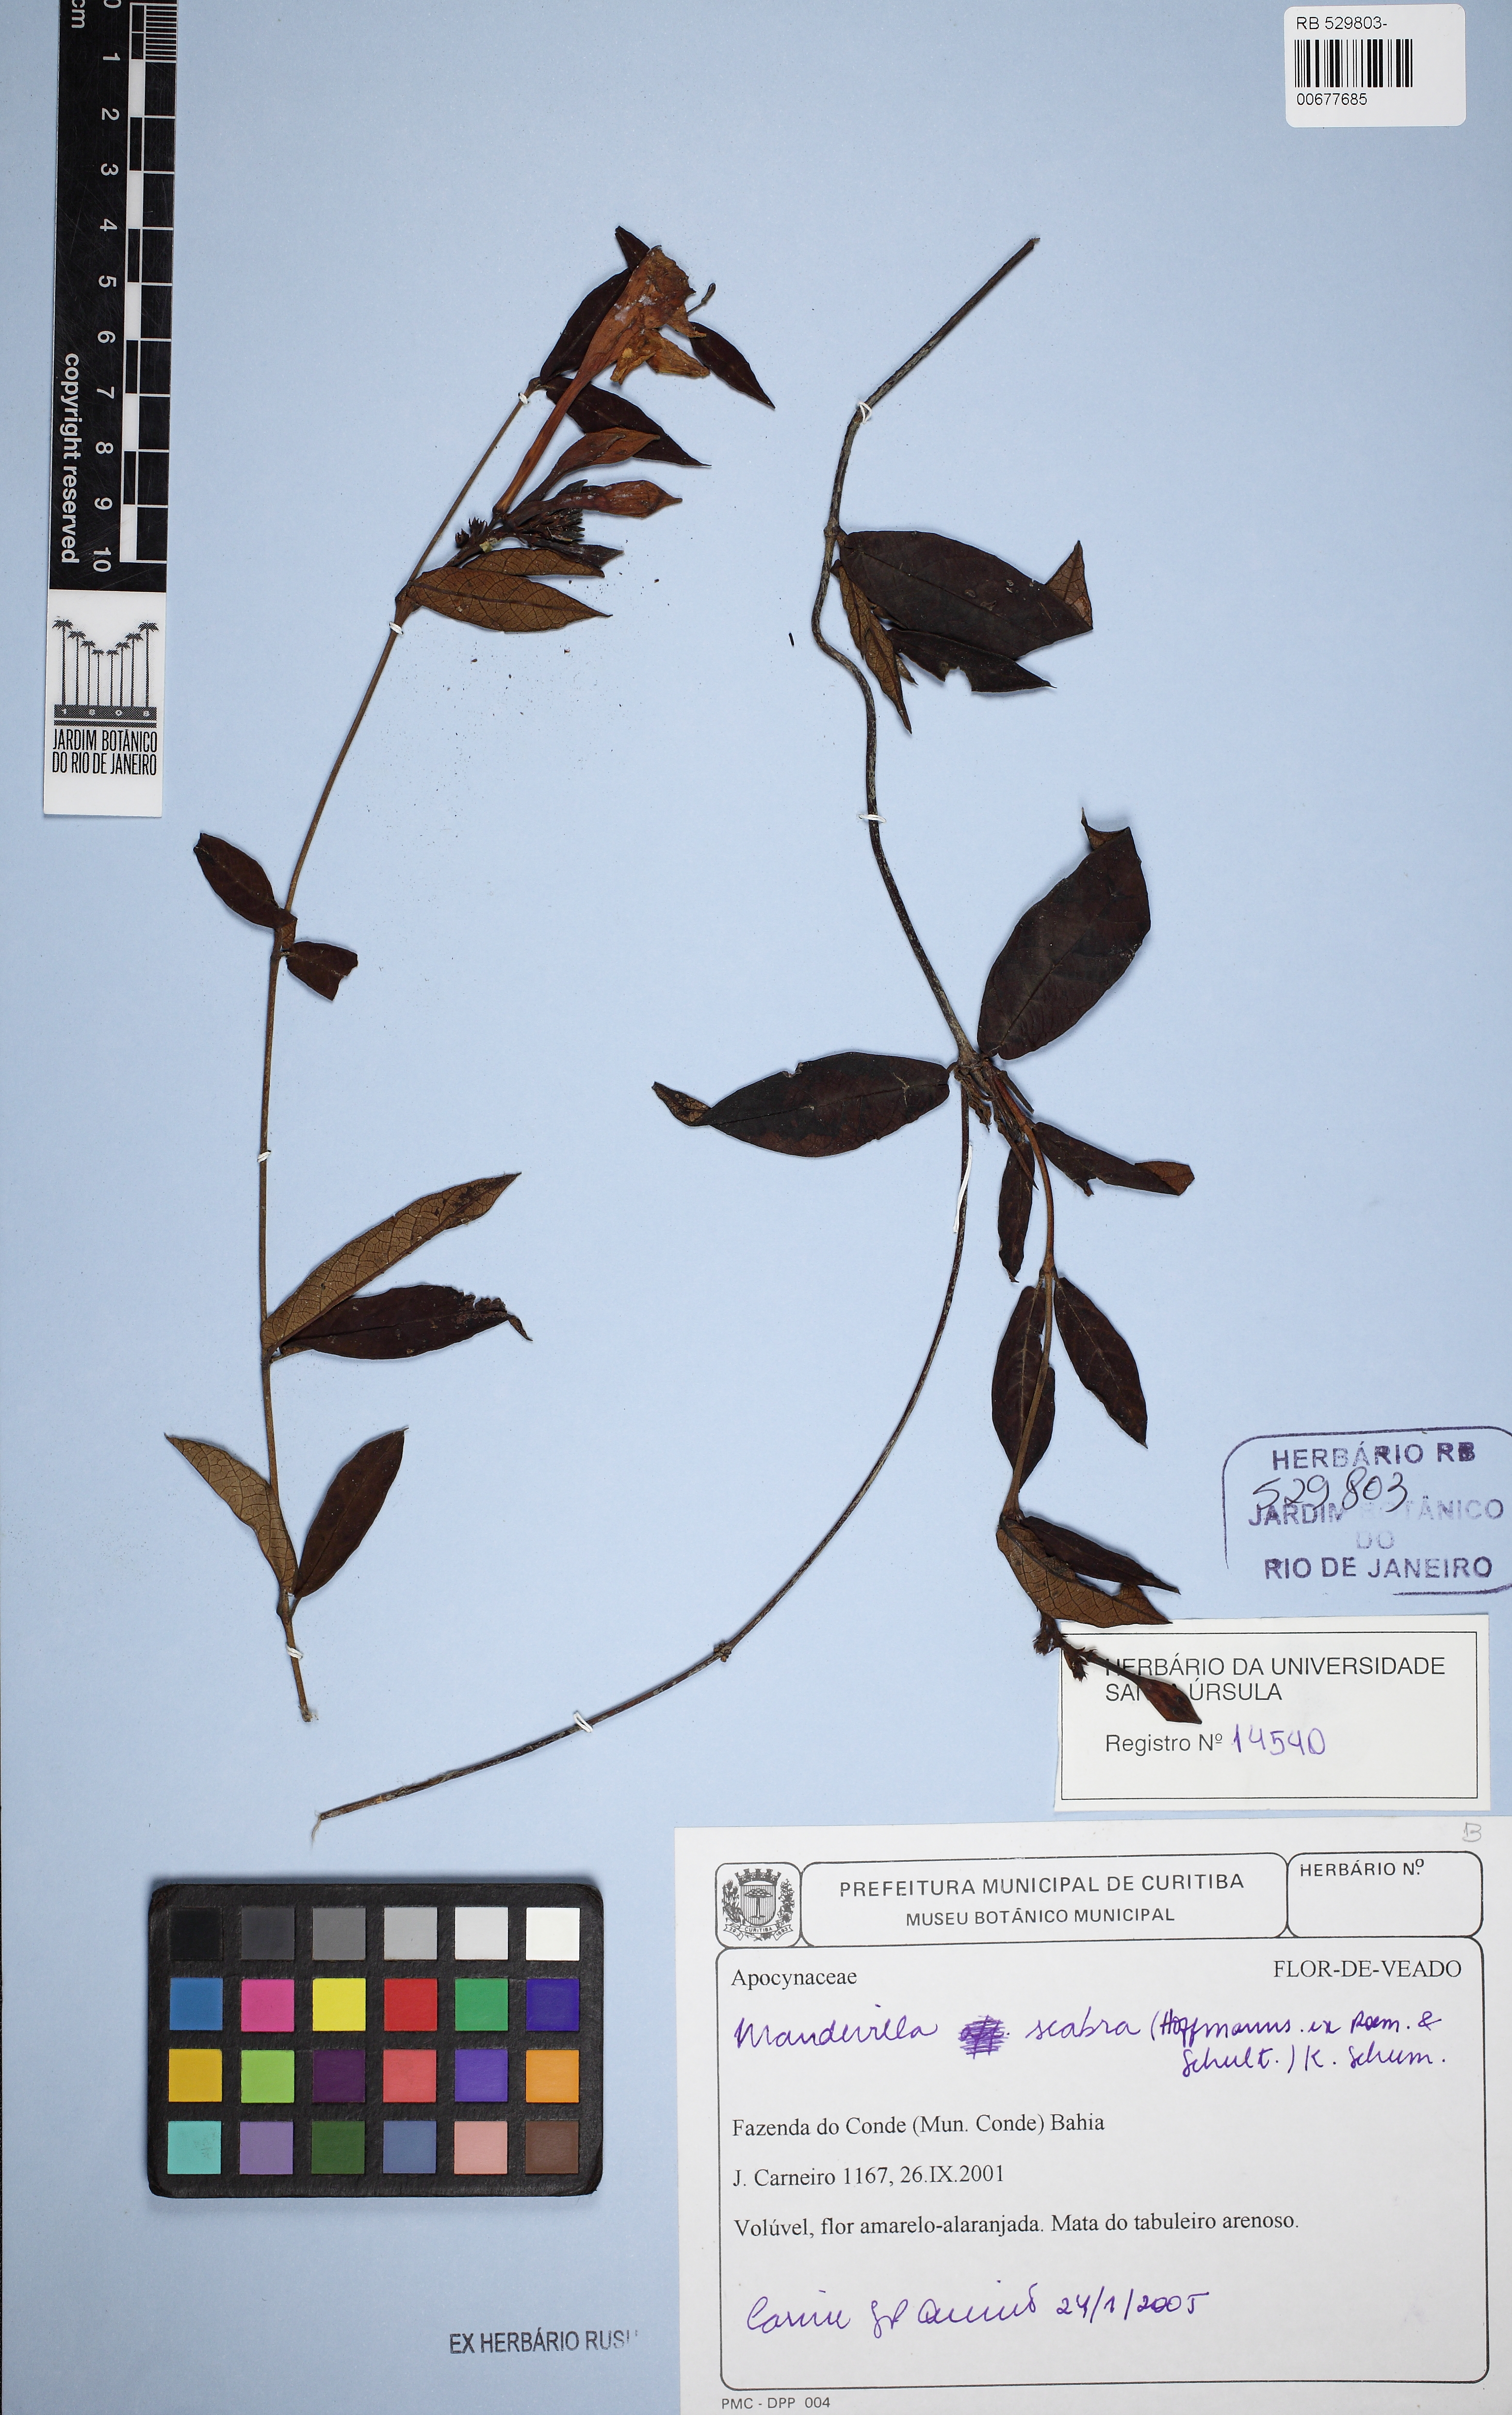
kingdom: Plantae
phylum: Tracheophyta
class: Magnoliopsida
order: Gentianales
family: Apocynaceae
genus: Mandevilla
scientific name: Mandevilla scabra
